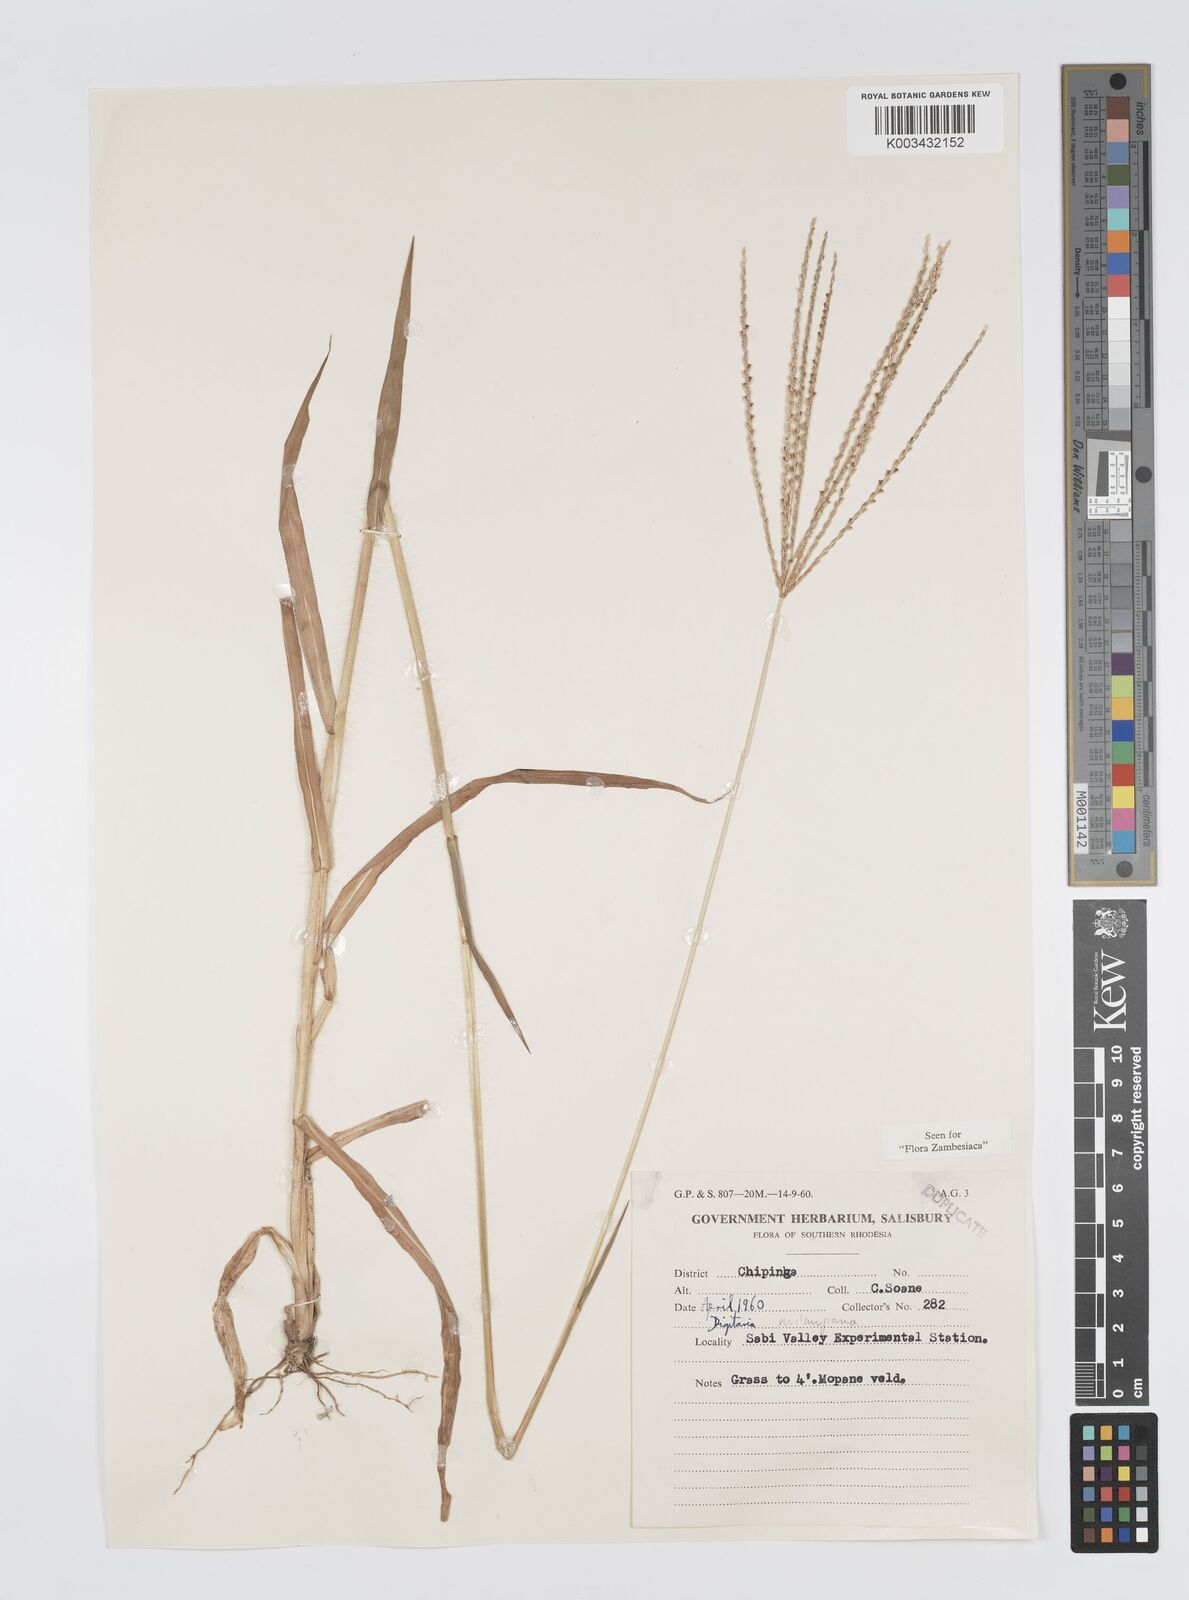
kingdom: Plantae
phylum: Tracheophyta
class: Liliopsida
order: Poales
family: Poaceae
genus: Digitaria
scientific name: Digitaria milanjiana
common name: Madagascar crabgrass
